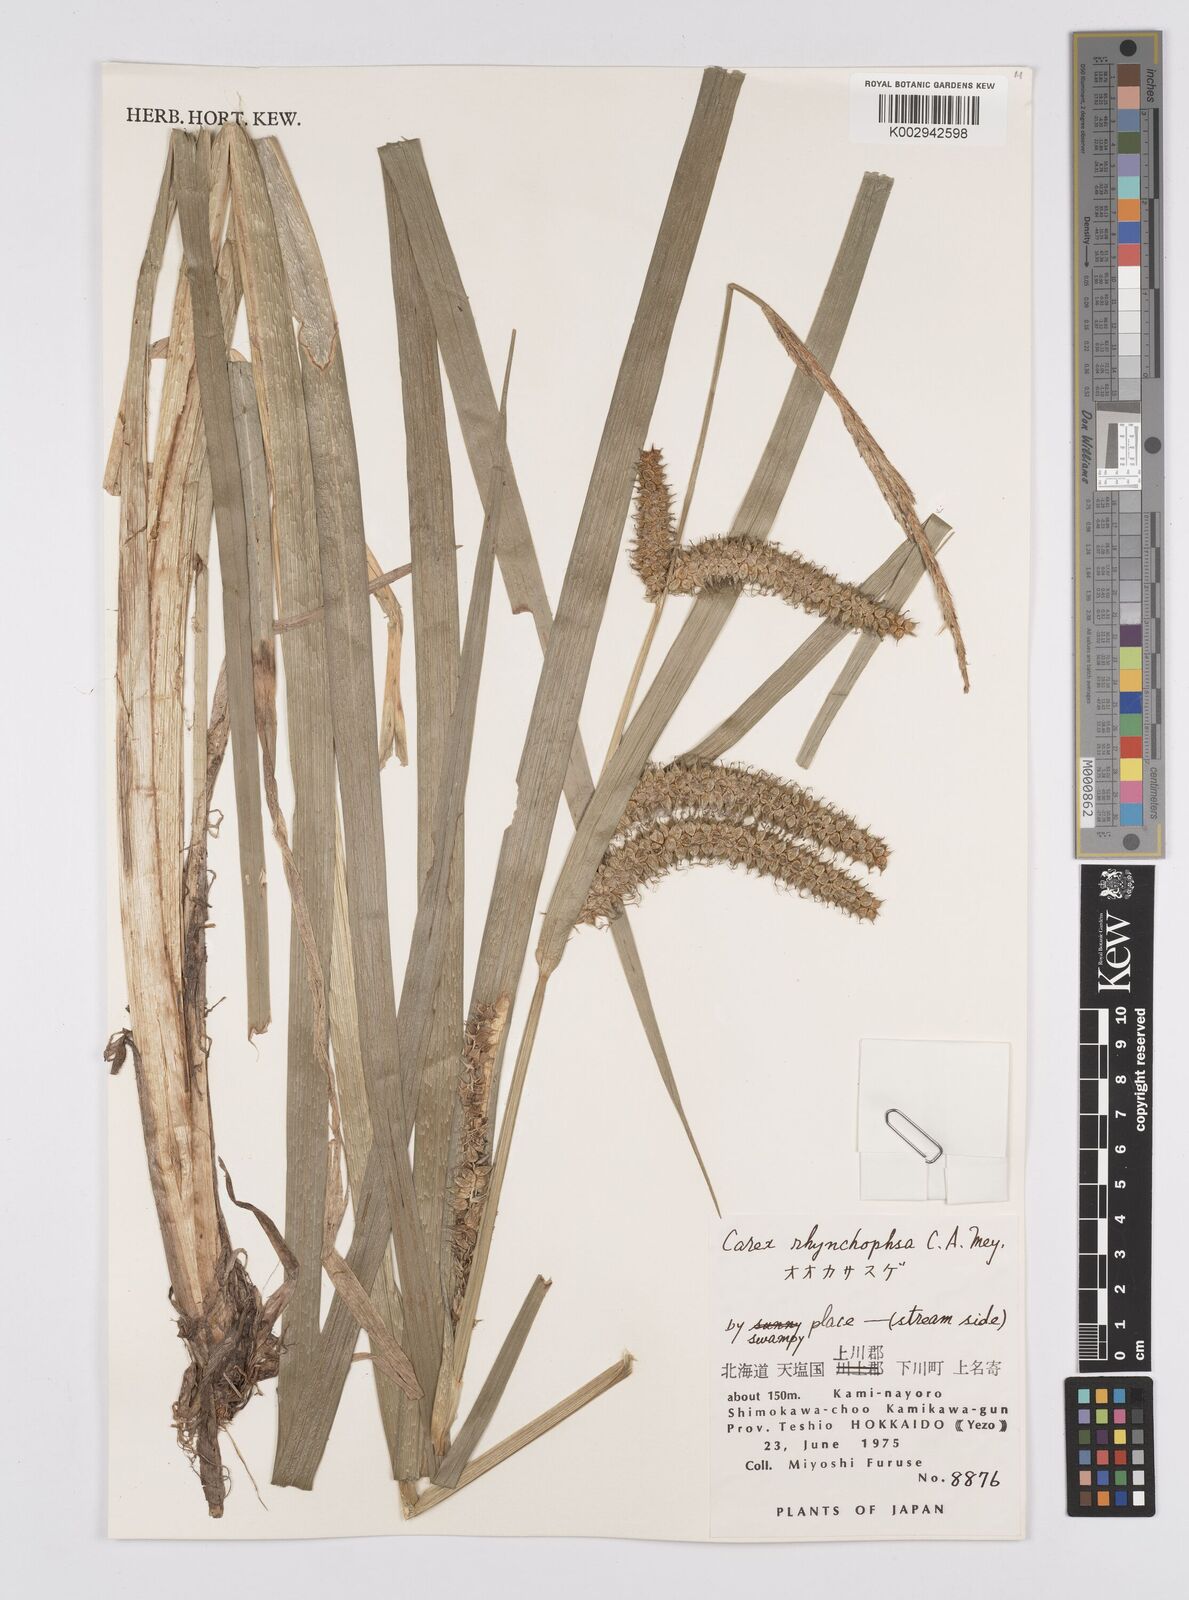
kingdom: Plantae
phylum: Tracheophyta
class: Liliopsida
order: Poales
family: Cyperaceae
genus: Carex
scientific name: Carex utriculata
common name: Beaked sedge
